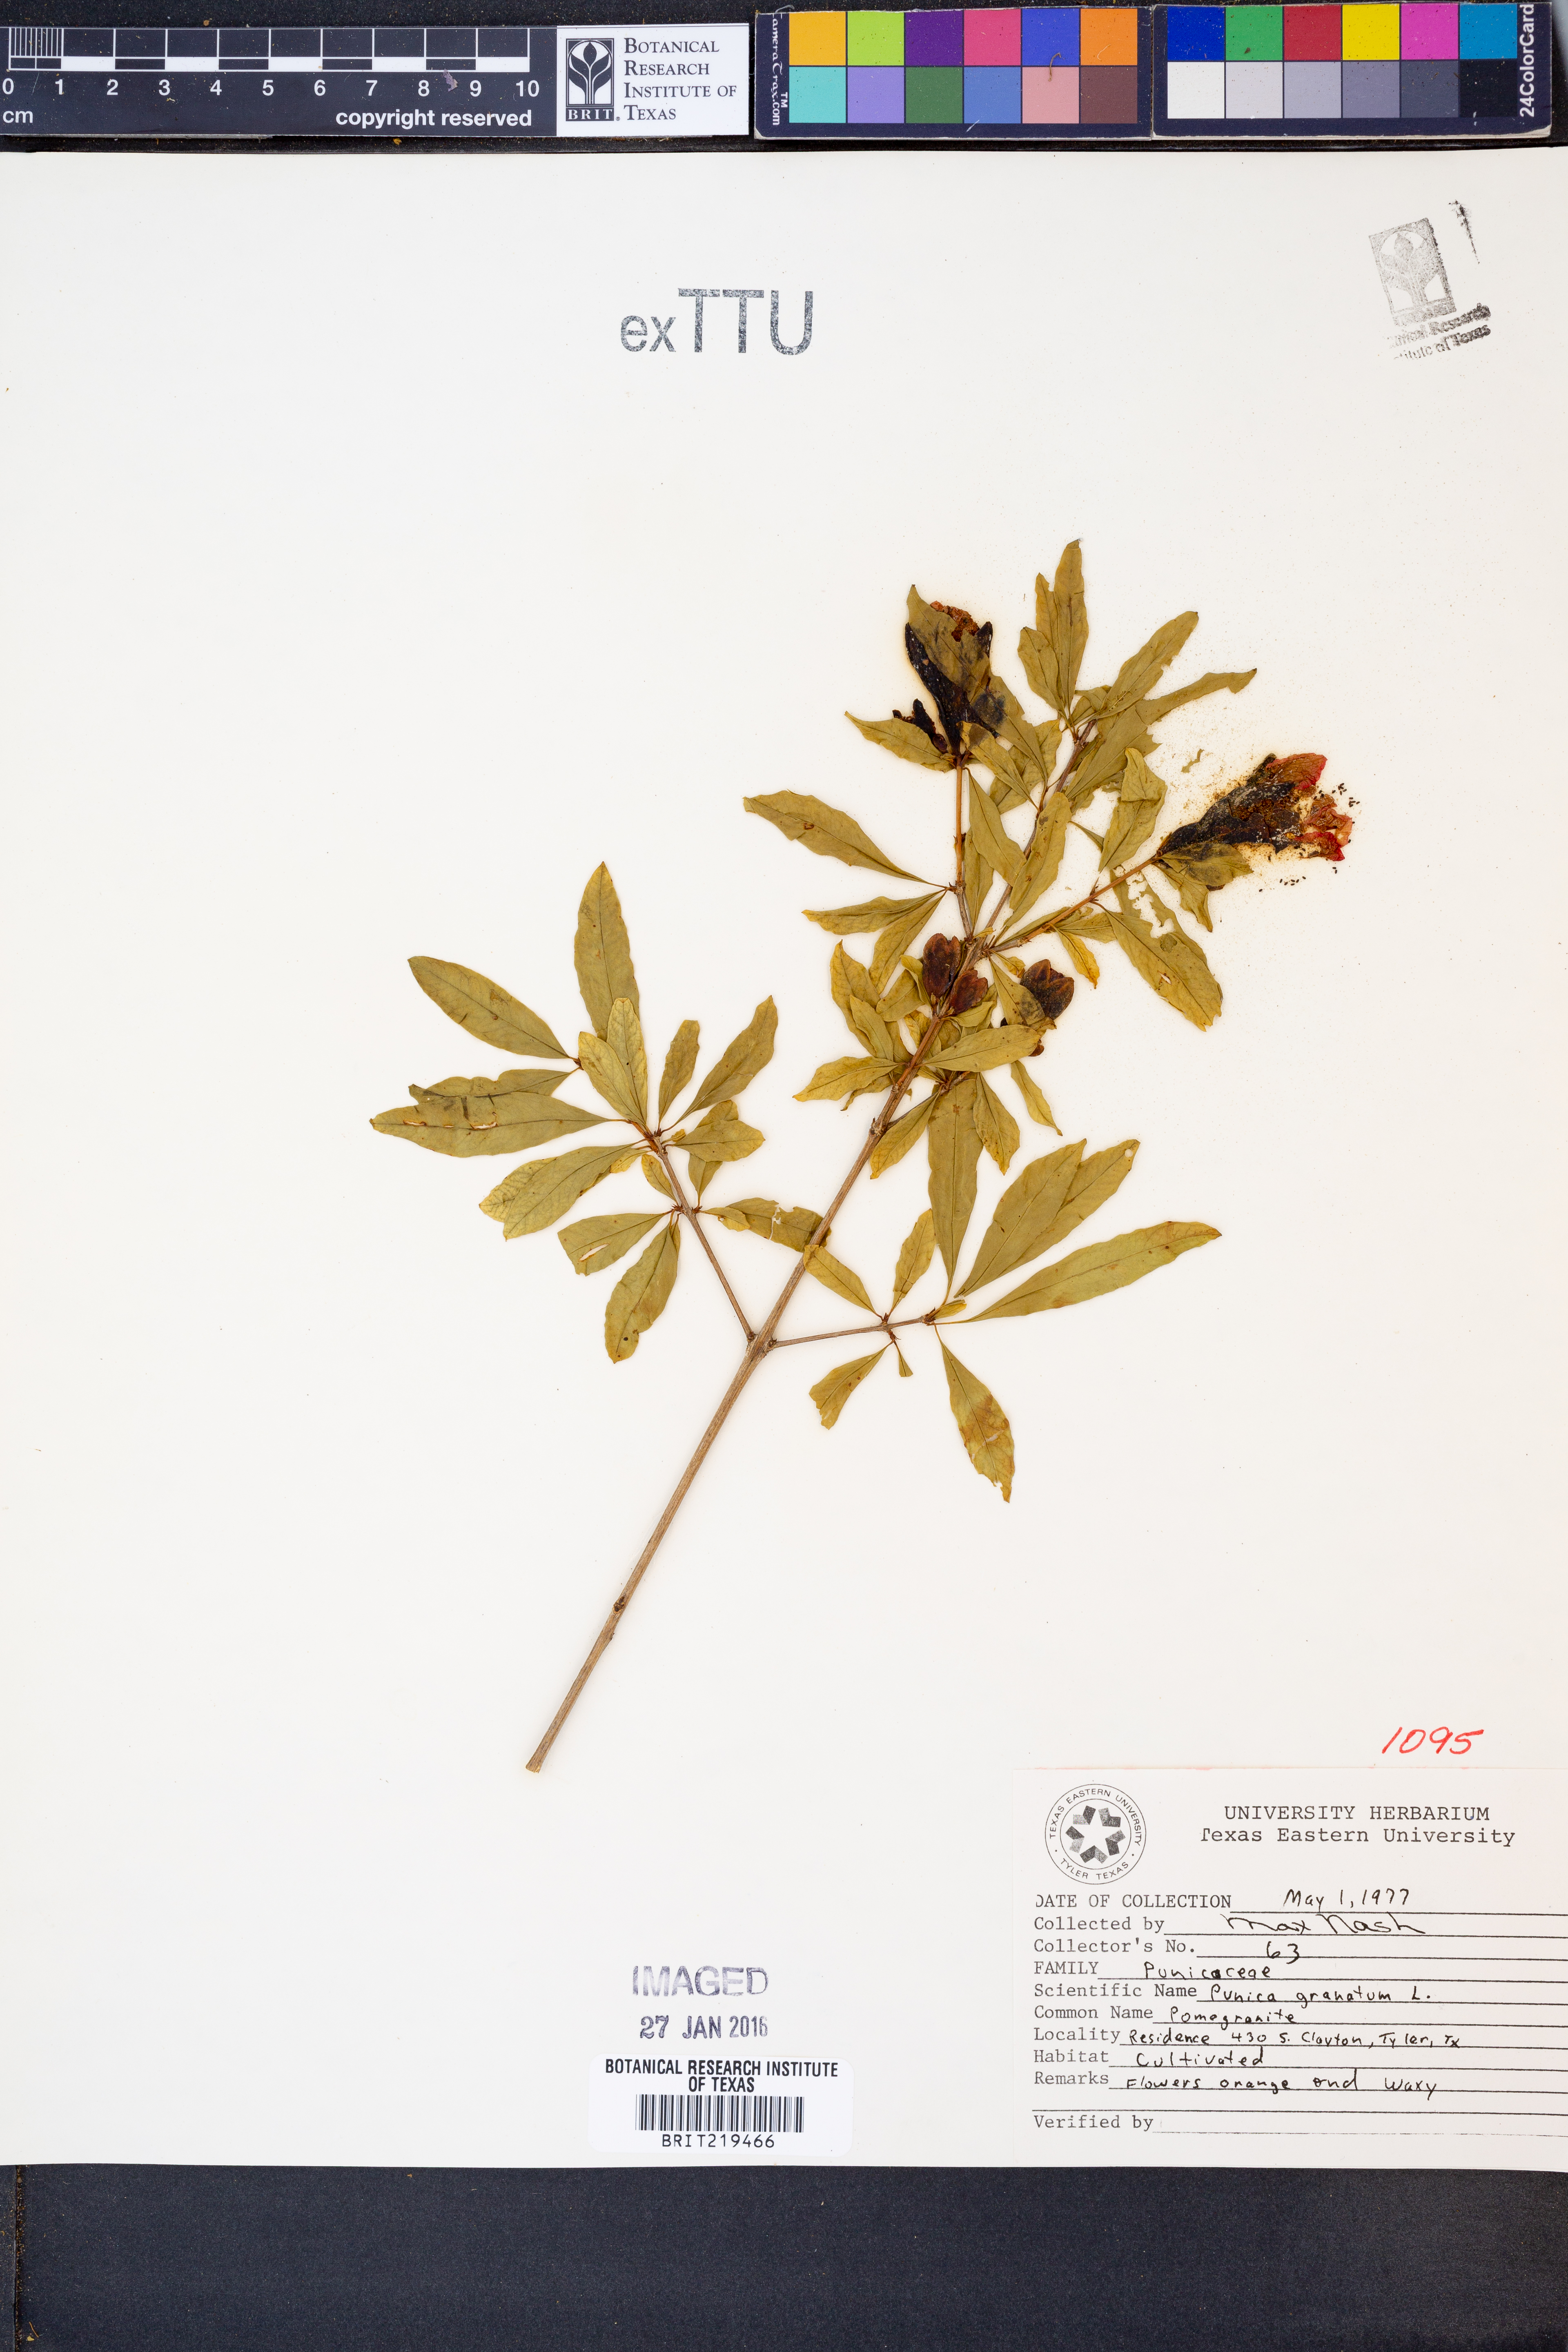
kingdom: Plantae
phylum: Tracheophyta
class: Magnoliopsida
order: Myrtales
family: Lythraceae
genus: Punica
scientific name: Punica granatum
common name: Pomegranate
